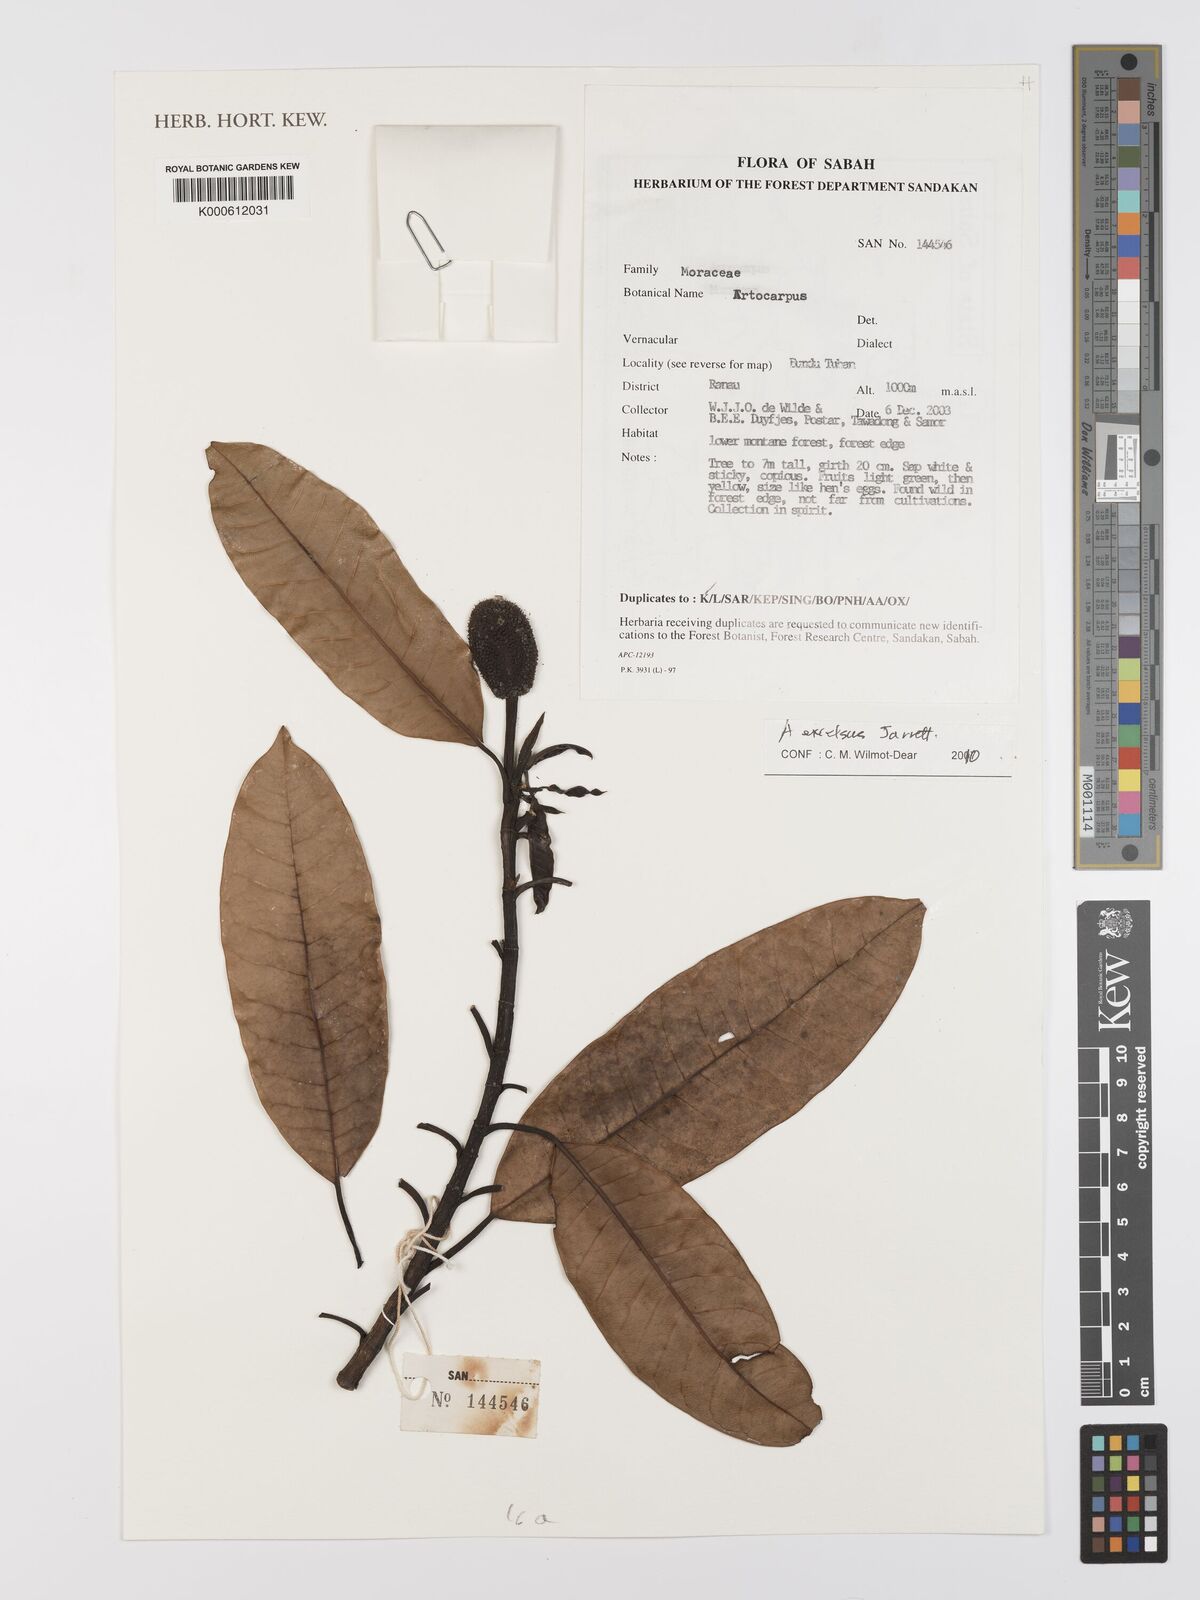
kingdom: Plantae
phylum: Tracheophyta
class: Magnoliopsida
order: Rosales
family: Moraceae
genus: Artocarpus
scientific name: Artocarpus excelsus
